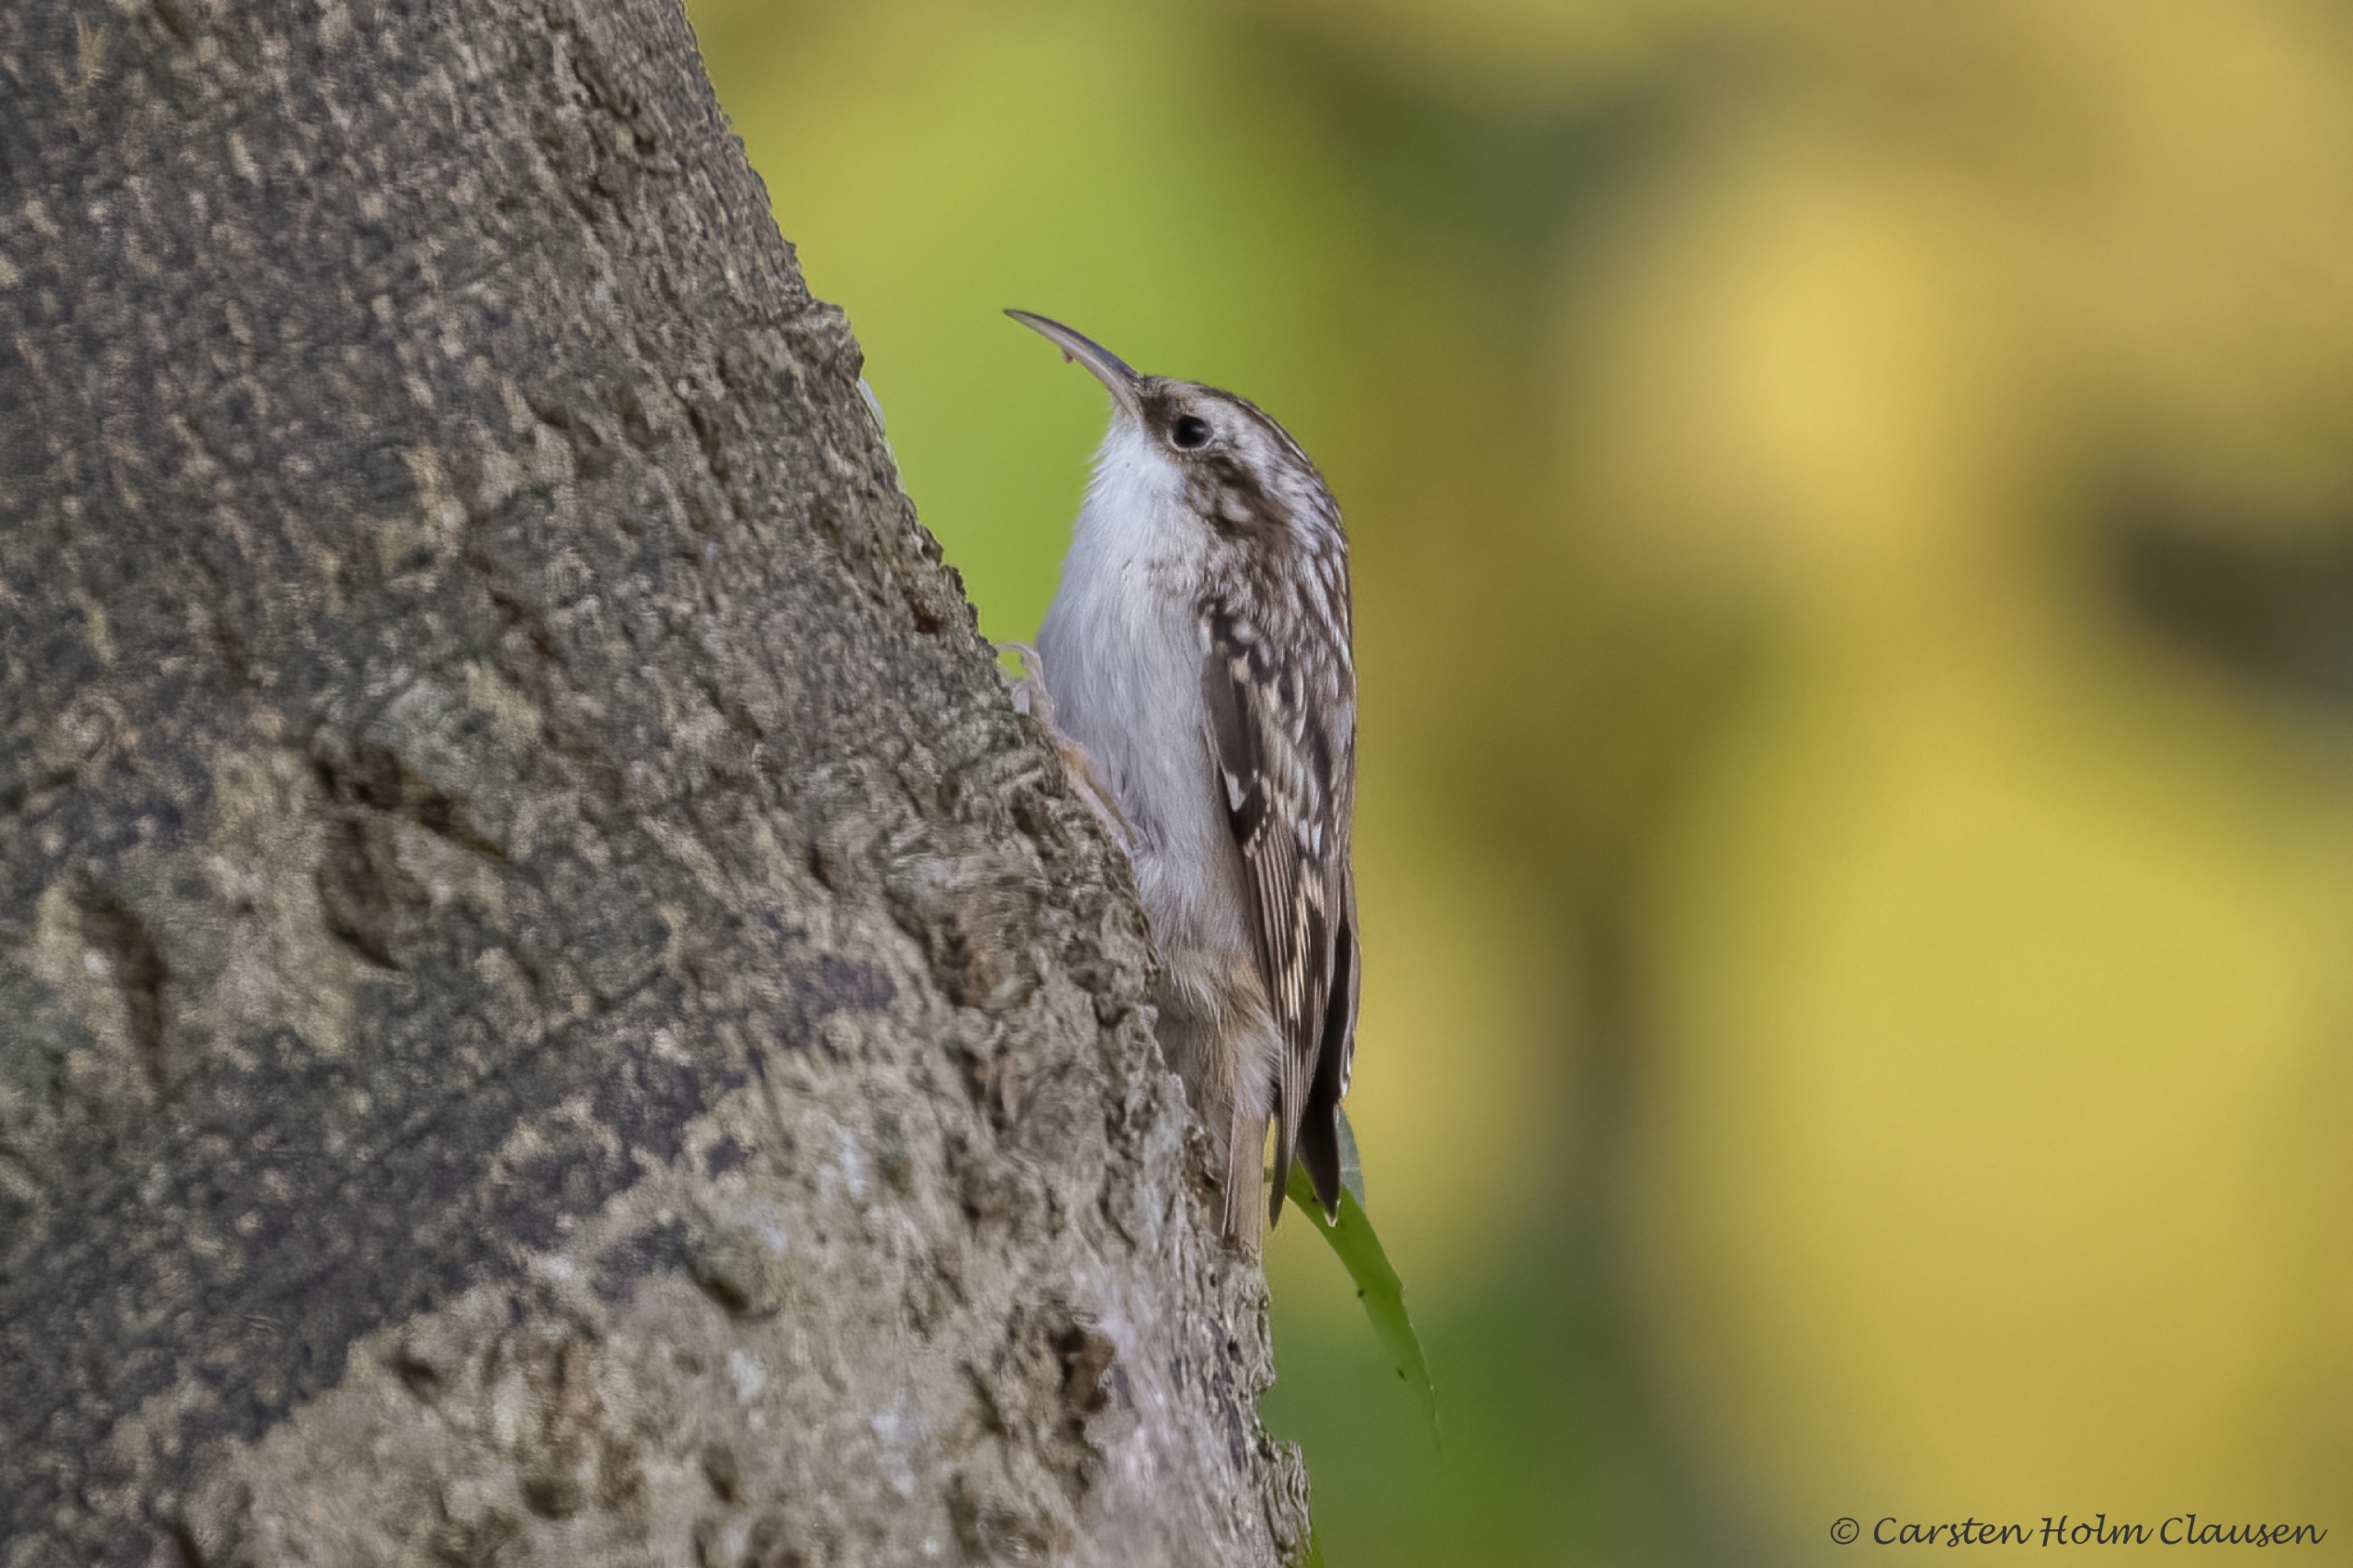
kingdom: Animalia
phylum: Chordata
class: Aves
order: Passeriformes
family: Certhiidae
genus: Certhia
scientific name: Certhia familiaris
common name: Træløber
